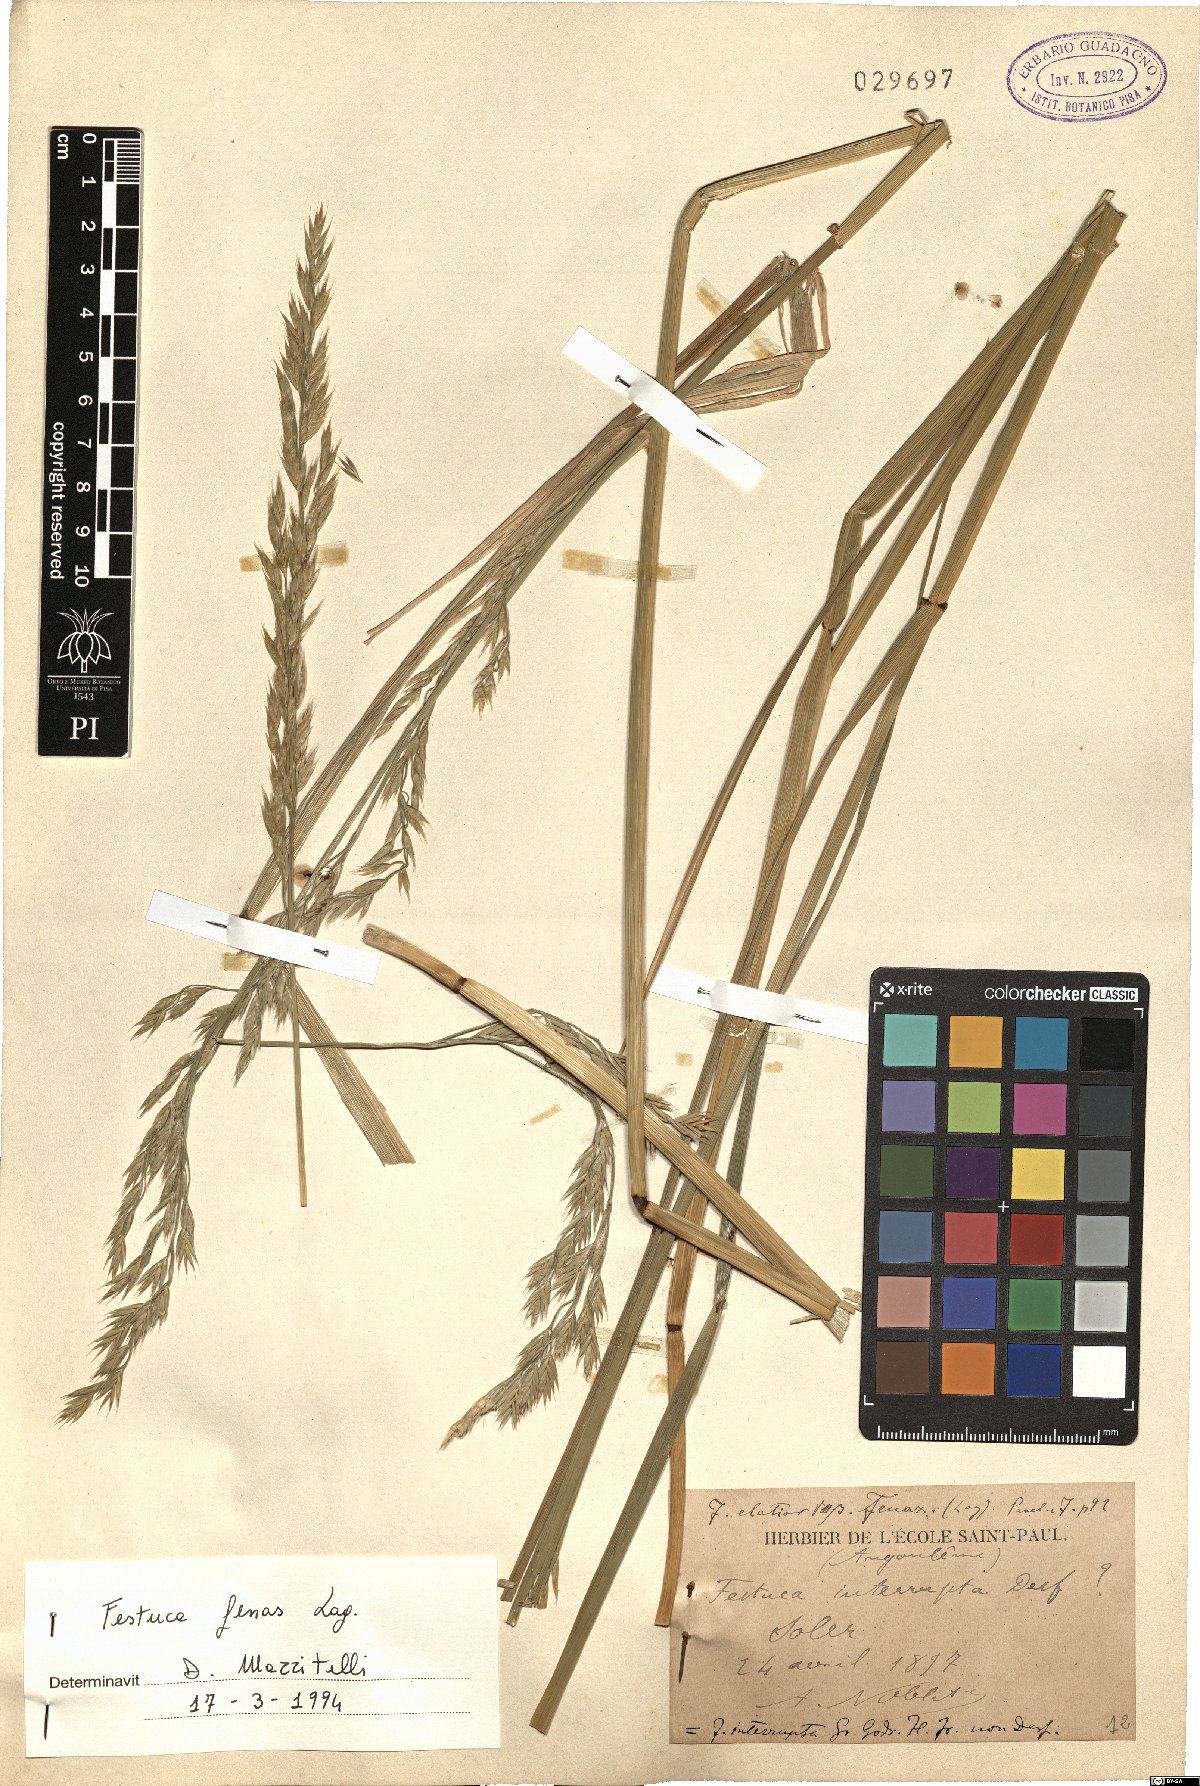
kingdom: Plantae
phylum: Tracheophyta
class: Liliopsida
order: Poales
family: Poaceae
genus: Lolium
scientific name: Lolium interruptum
